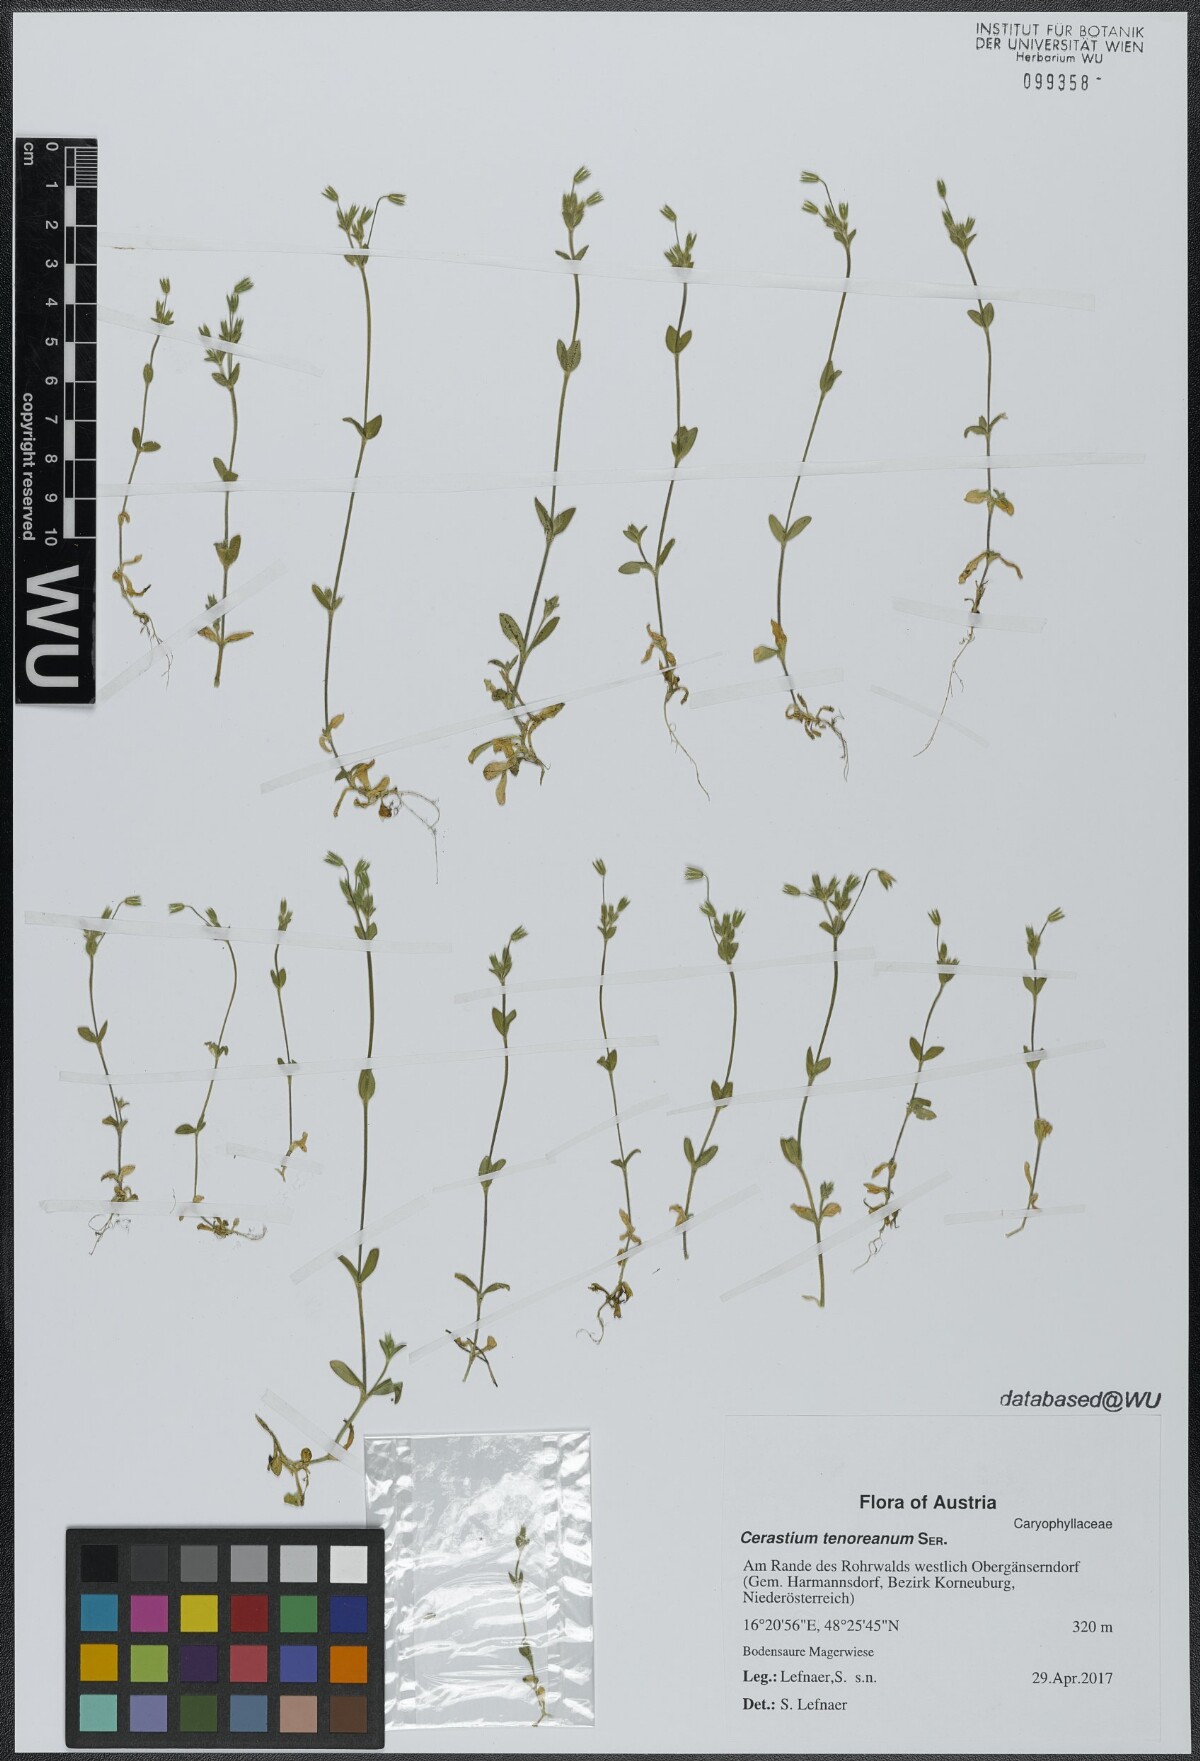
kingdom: Plantae
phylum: Tracheophyta
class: Magnoliopsida
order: Caryophyllales
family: Caryophyllaceae
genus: Cerastium
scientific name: Cerastium tenoreanum
